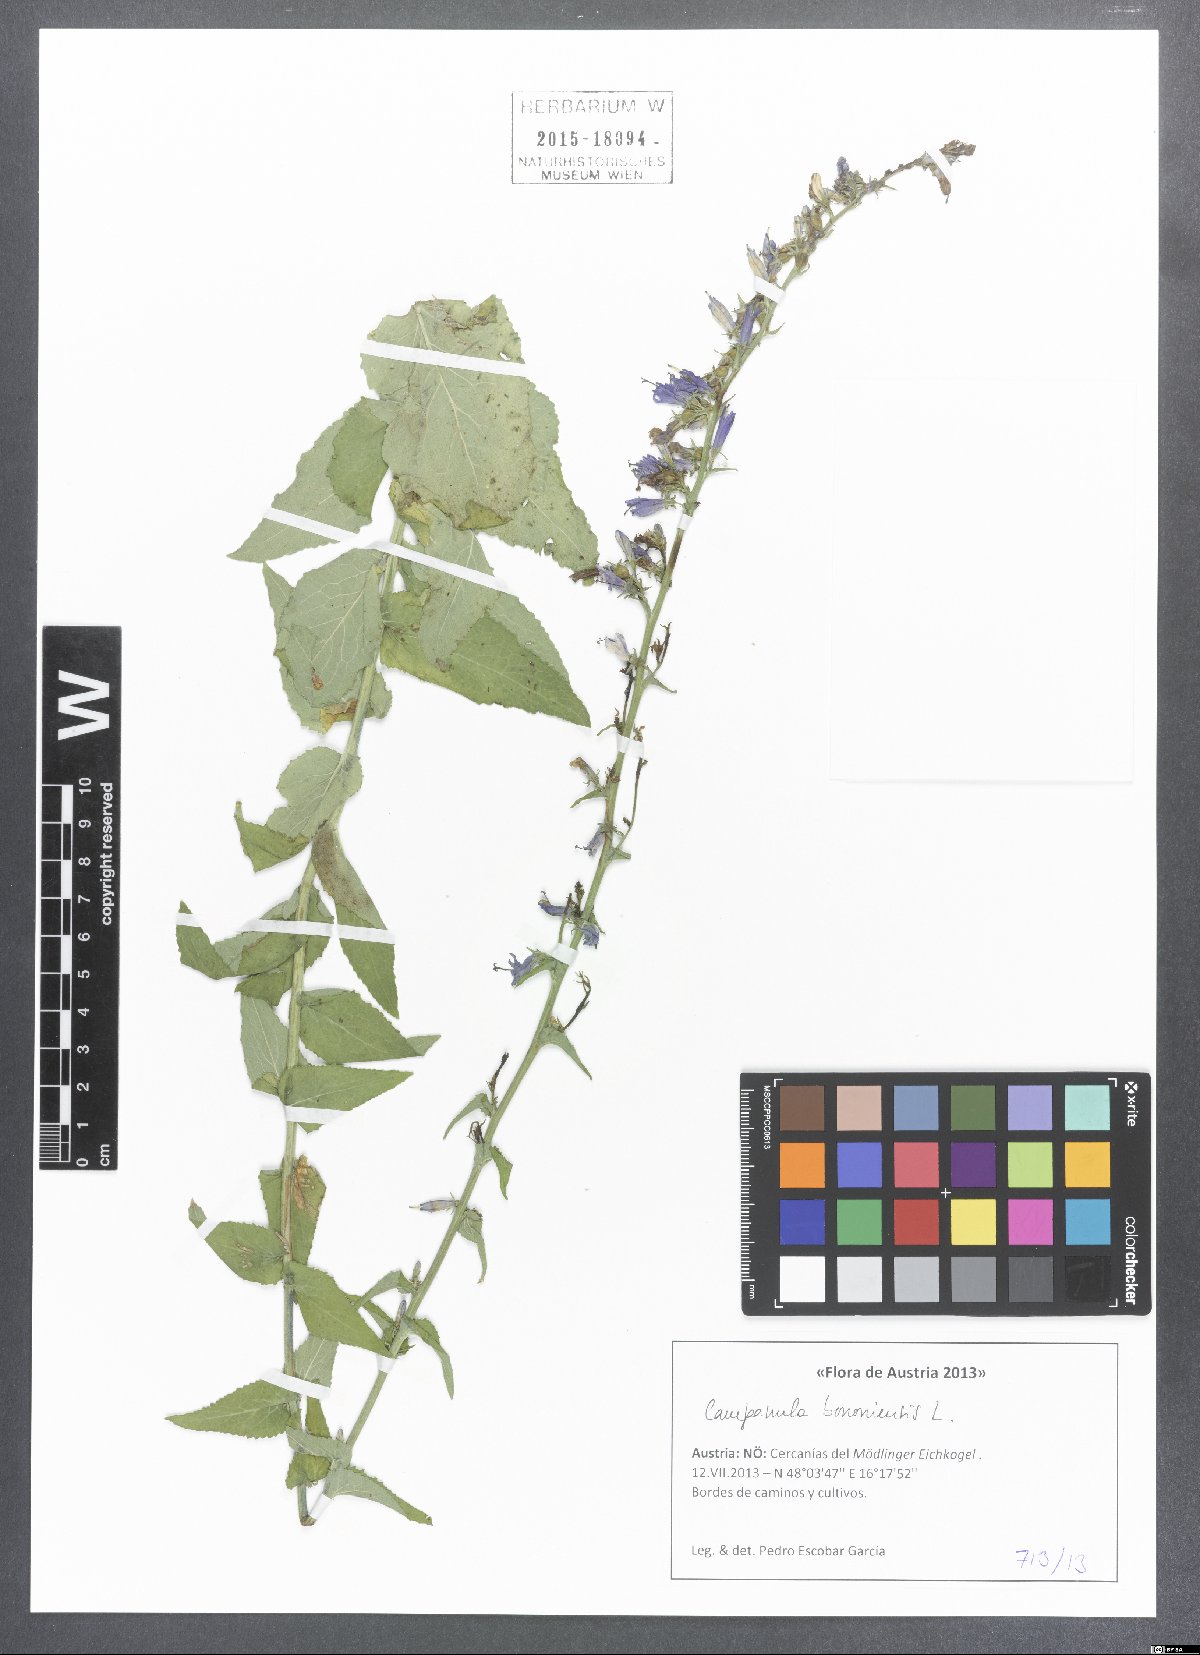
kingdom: Plantae
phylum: Tracheophyta
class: Magnoliopsida
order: Asterales
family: Campanulaceae
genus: Campanula
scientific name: Campanula bononiensis
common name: Pale bellflower
